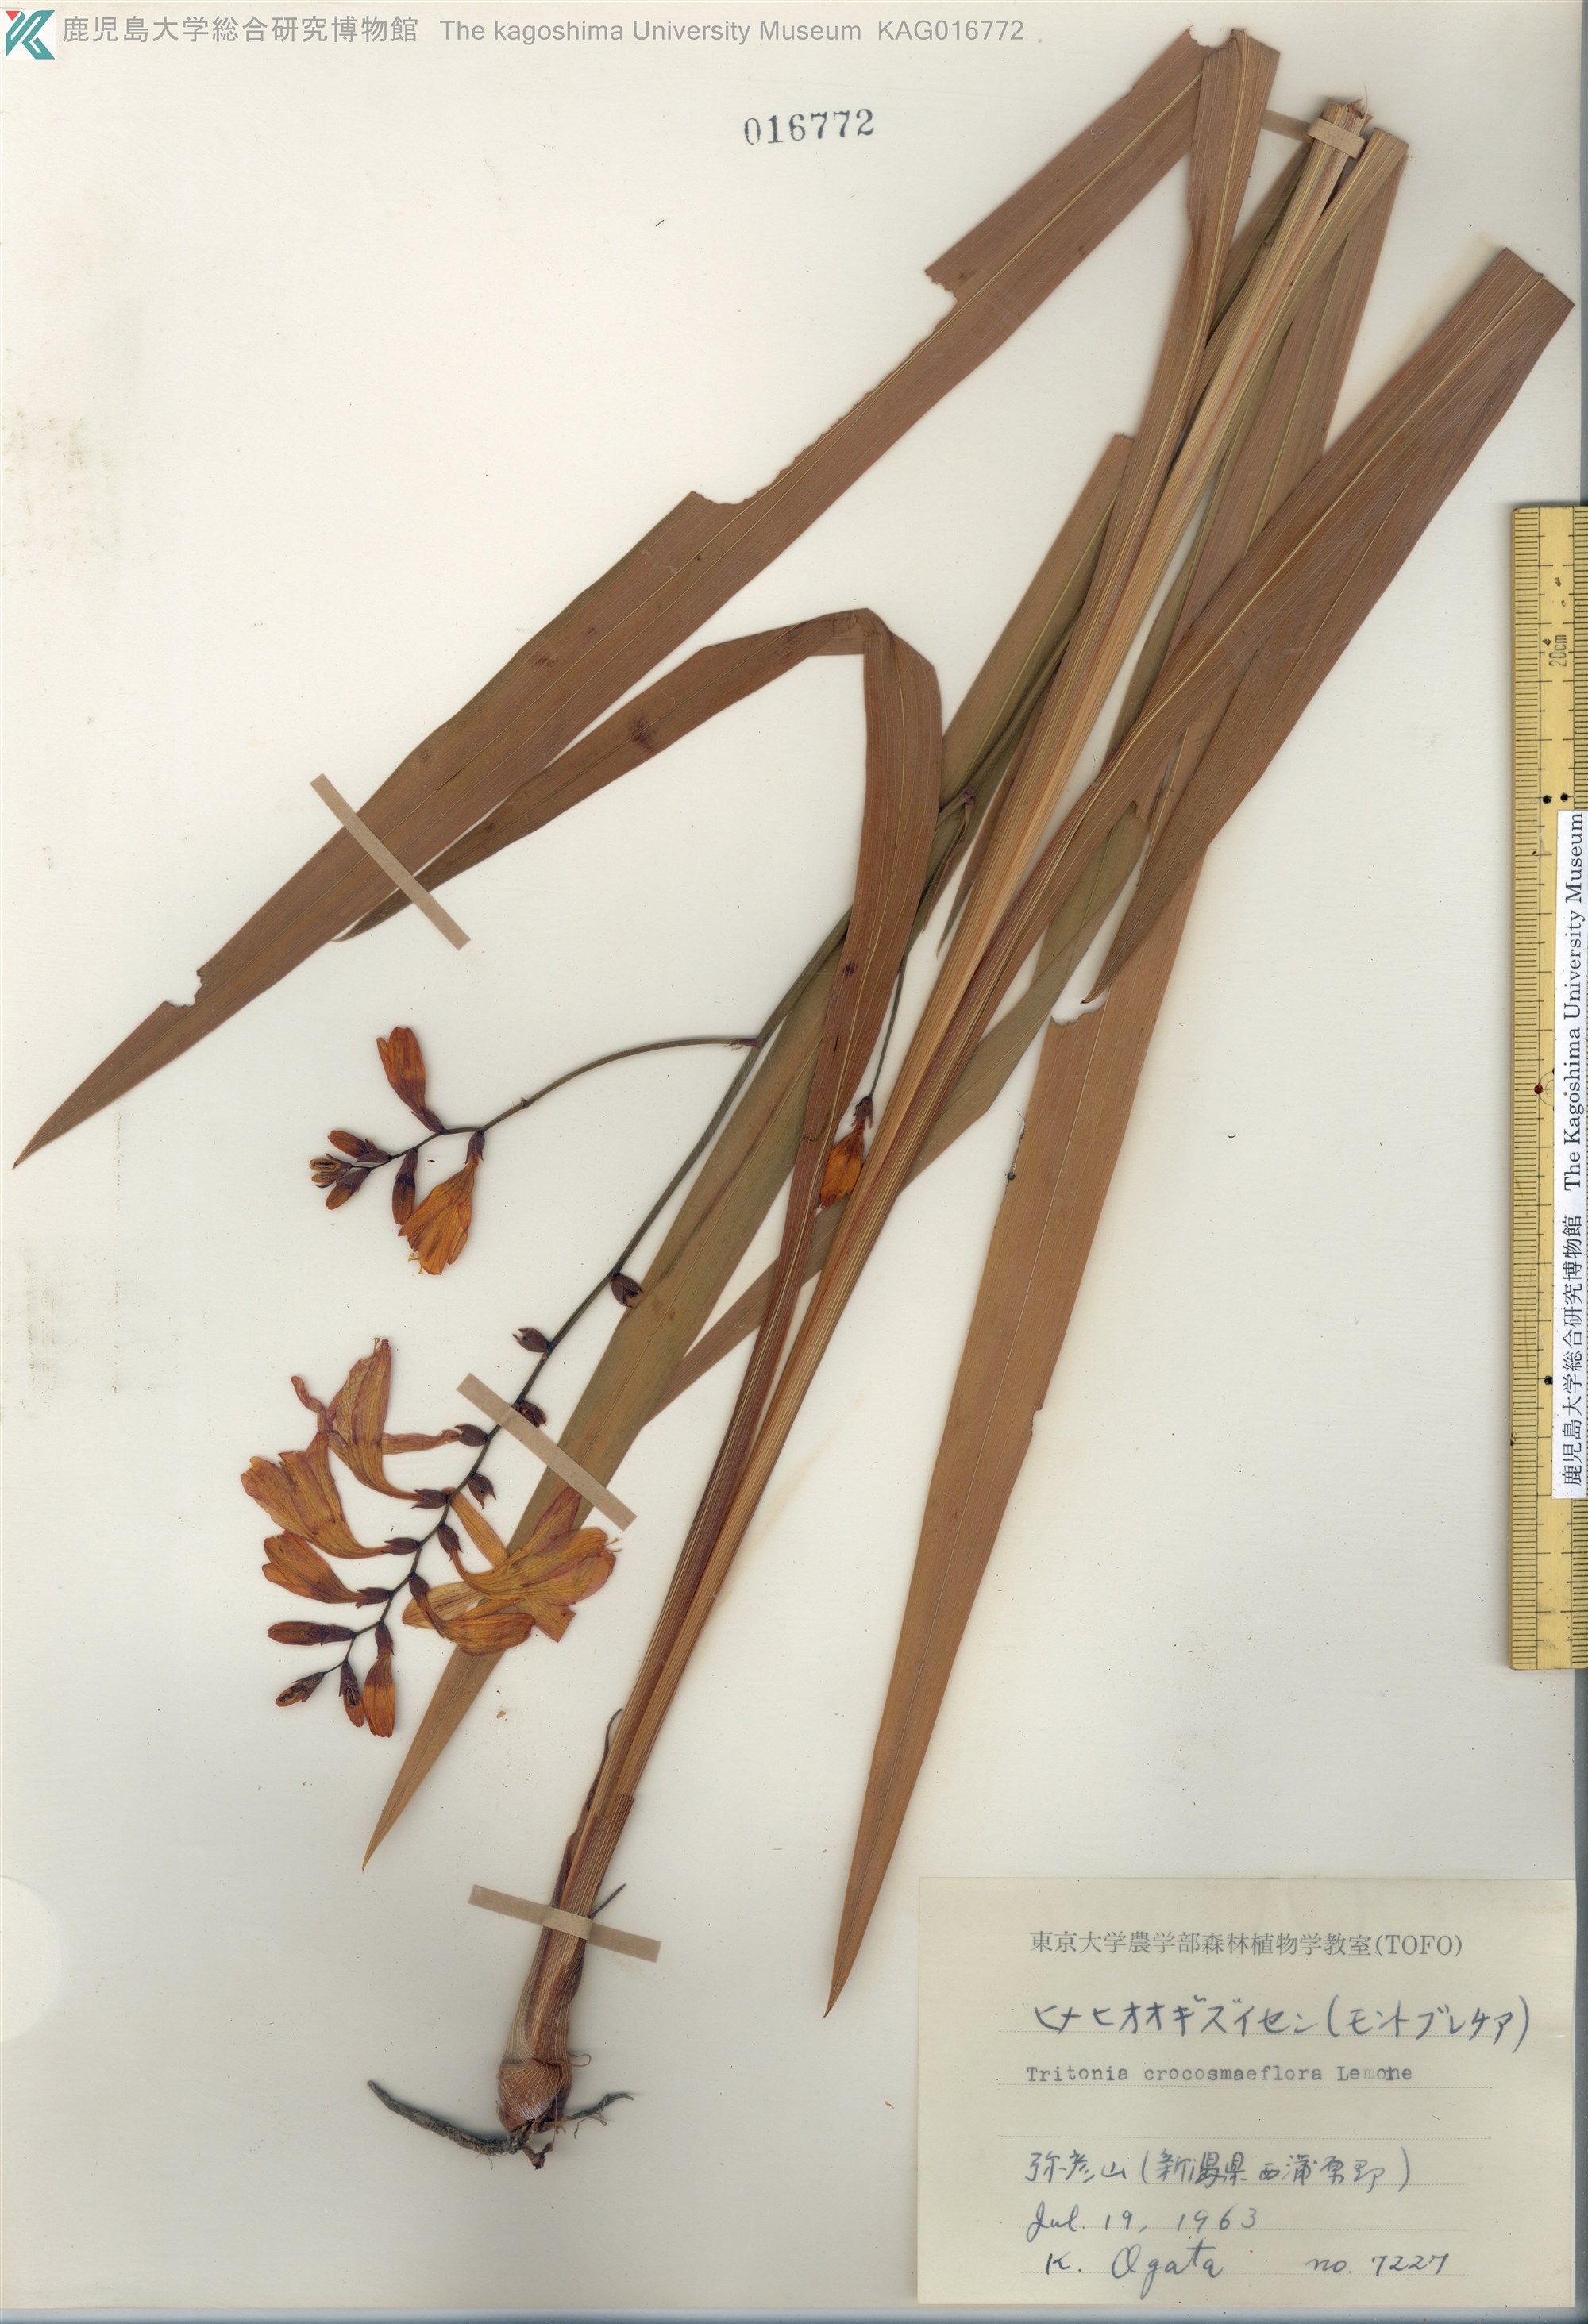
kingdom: Plantae
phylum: Tracheophyta
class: Liliopsida
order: Asparagales
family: Iridaceae
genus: Crocosmia
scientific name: Crocosmia crocosmiiflora
